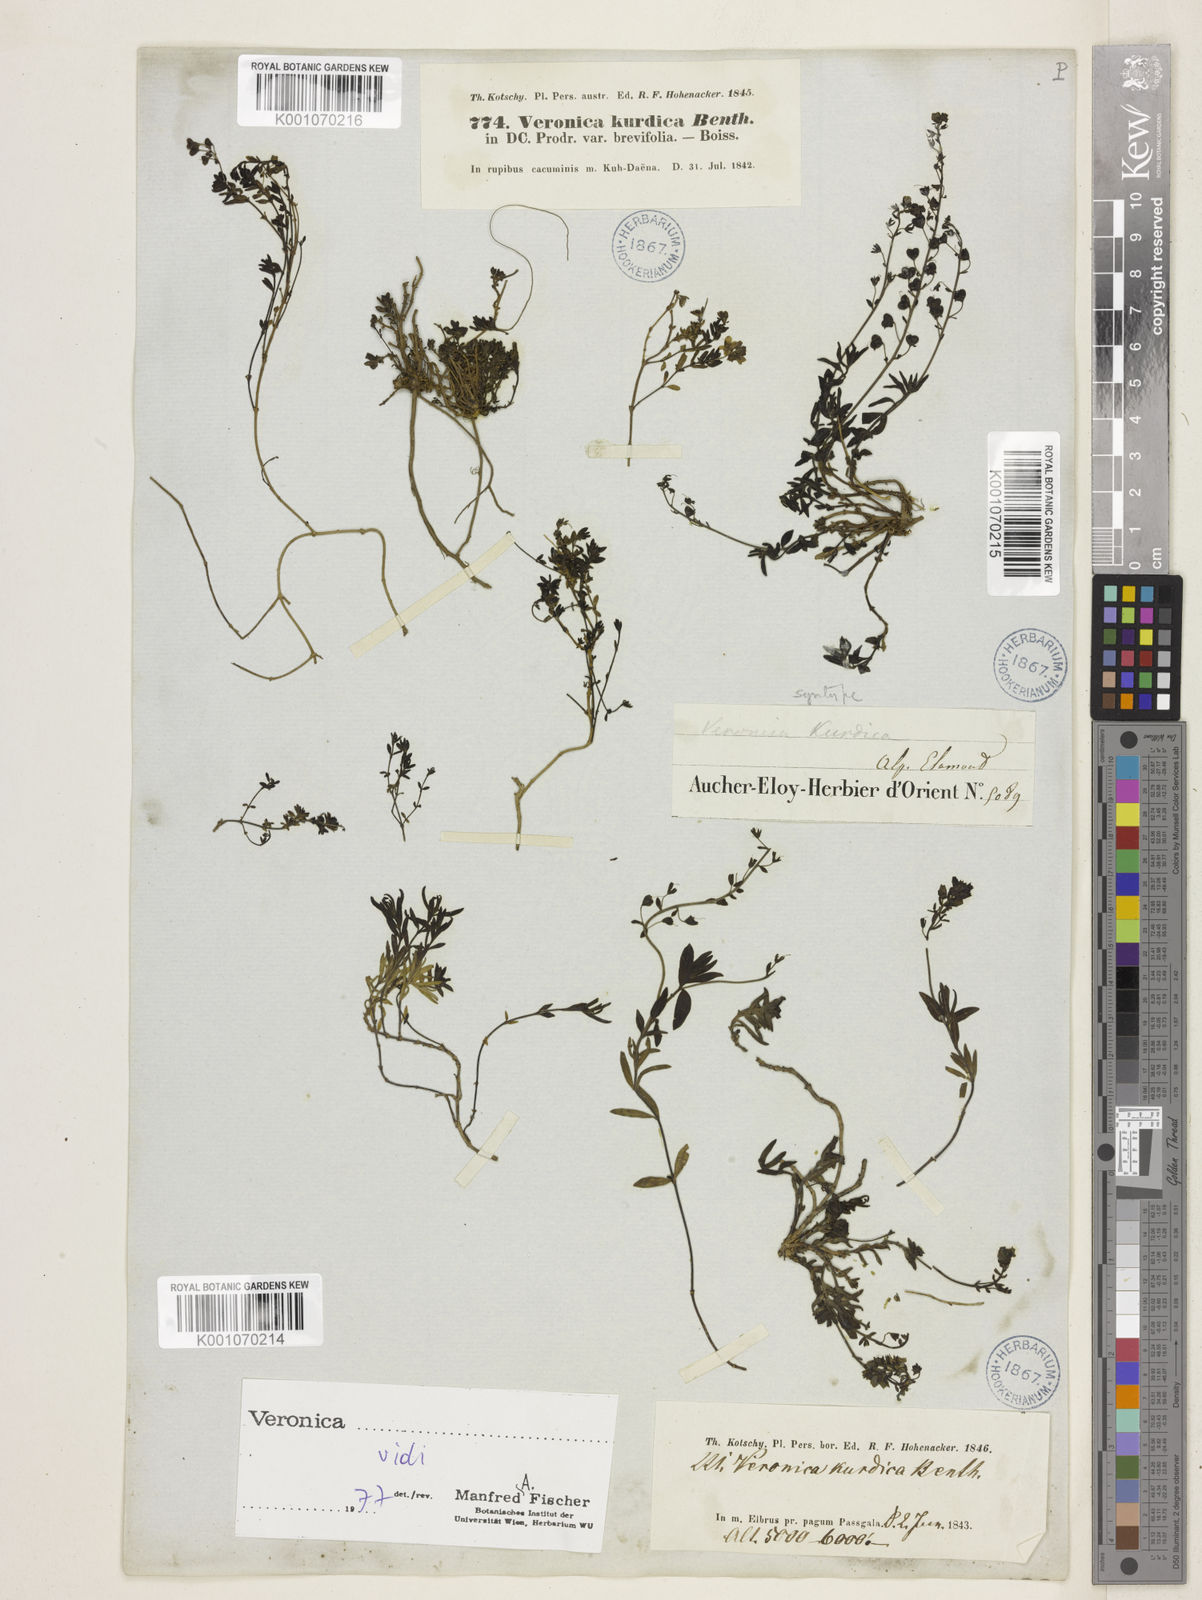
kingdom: Plantae
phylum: Tracheophyta
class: Magnoliopsida
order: Lamiales
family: Plantaginaceae
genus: Veronica
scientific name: Veronica orientalis
